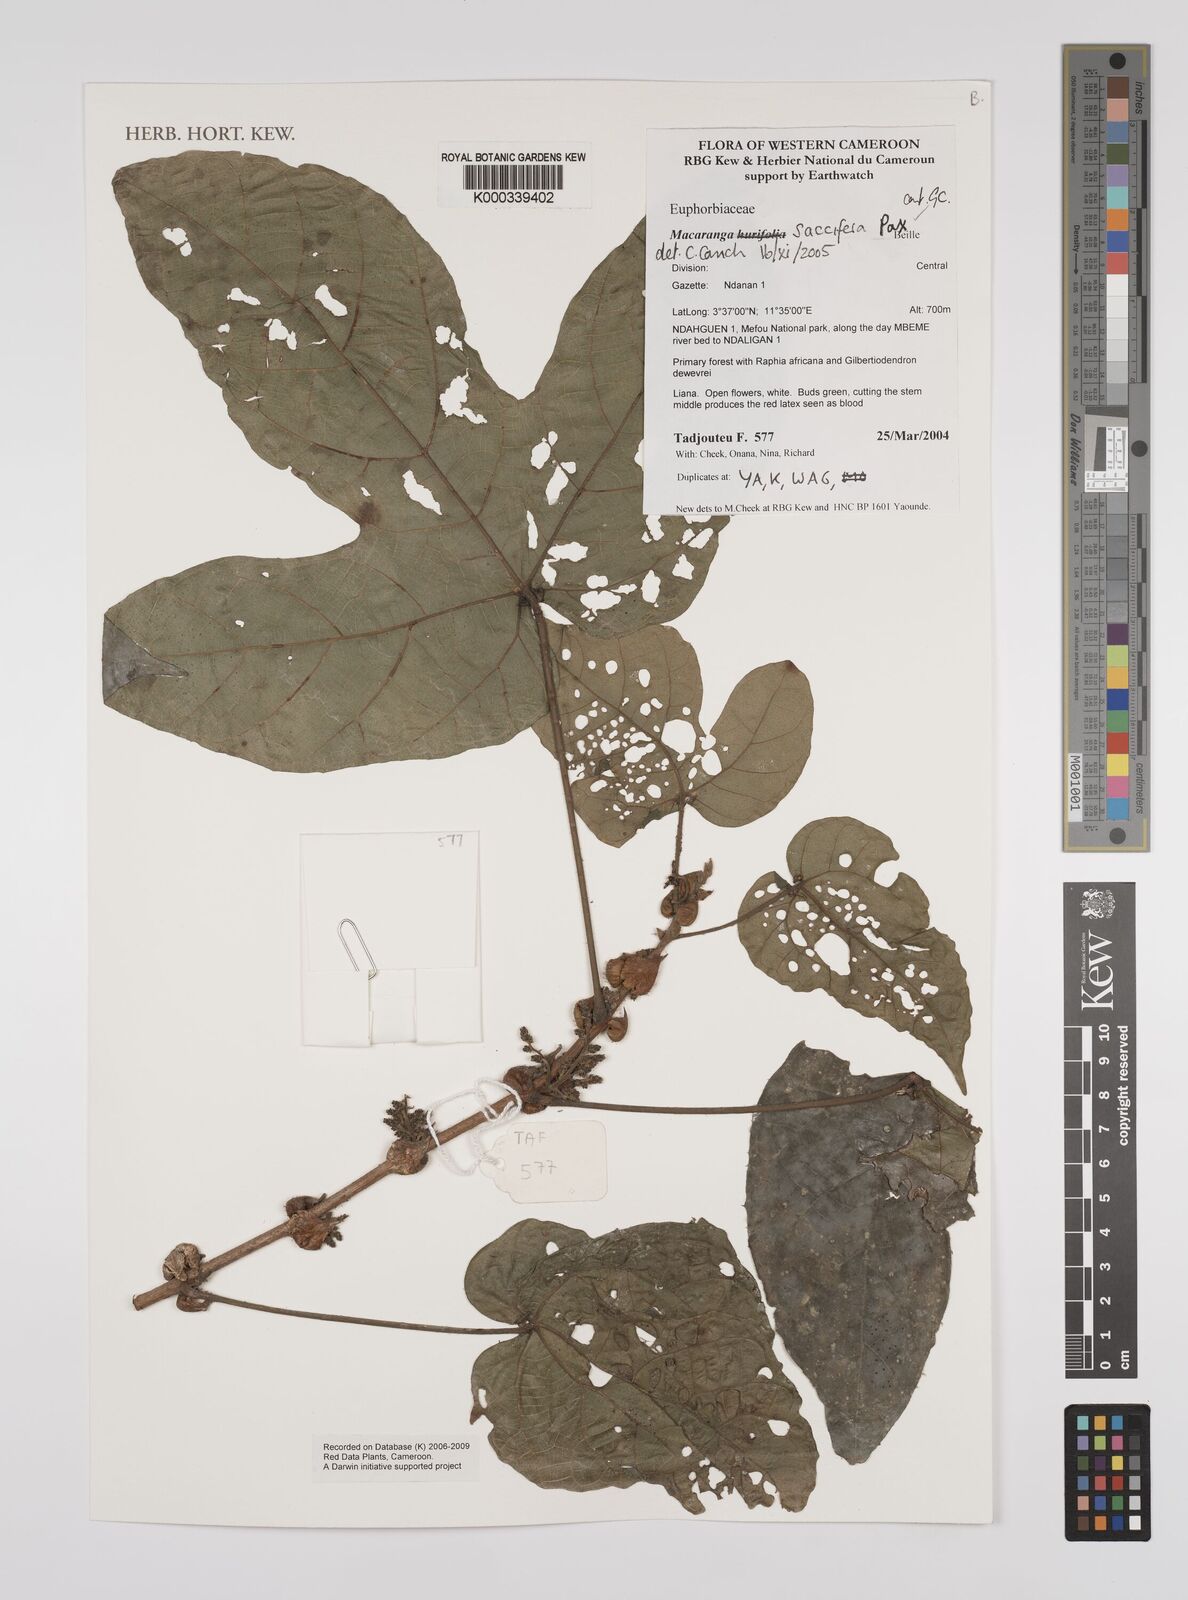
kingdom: Plantae
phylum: Tracheophyta
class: Magnoliopsida
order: Malpighiales
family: Euphorbiaceae
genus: Macaranga
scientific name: Macaranga saccifera
